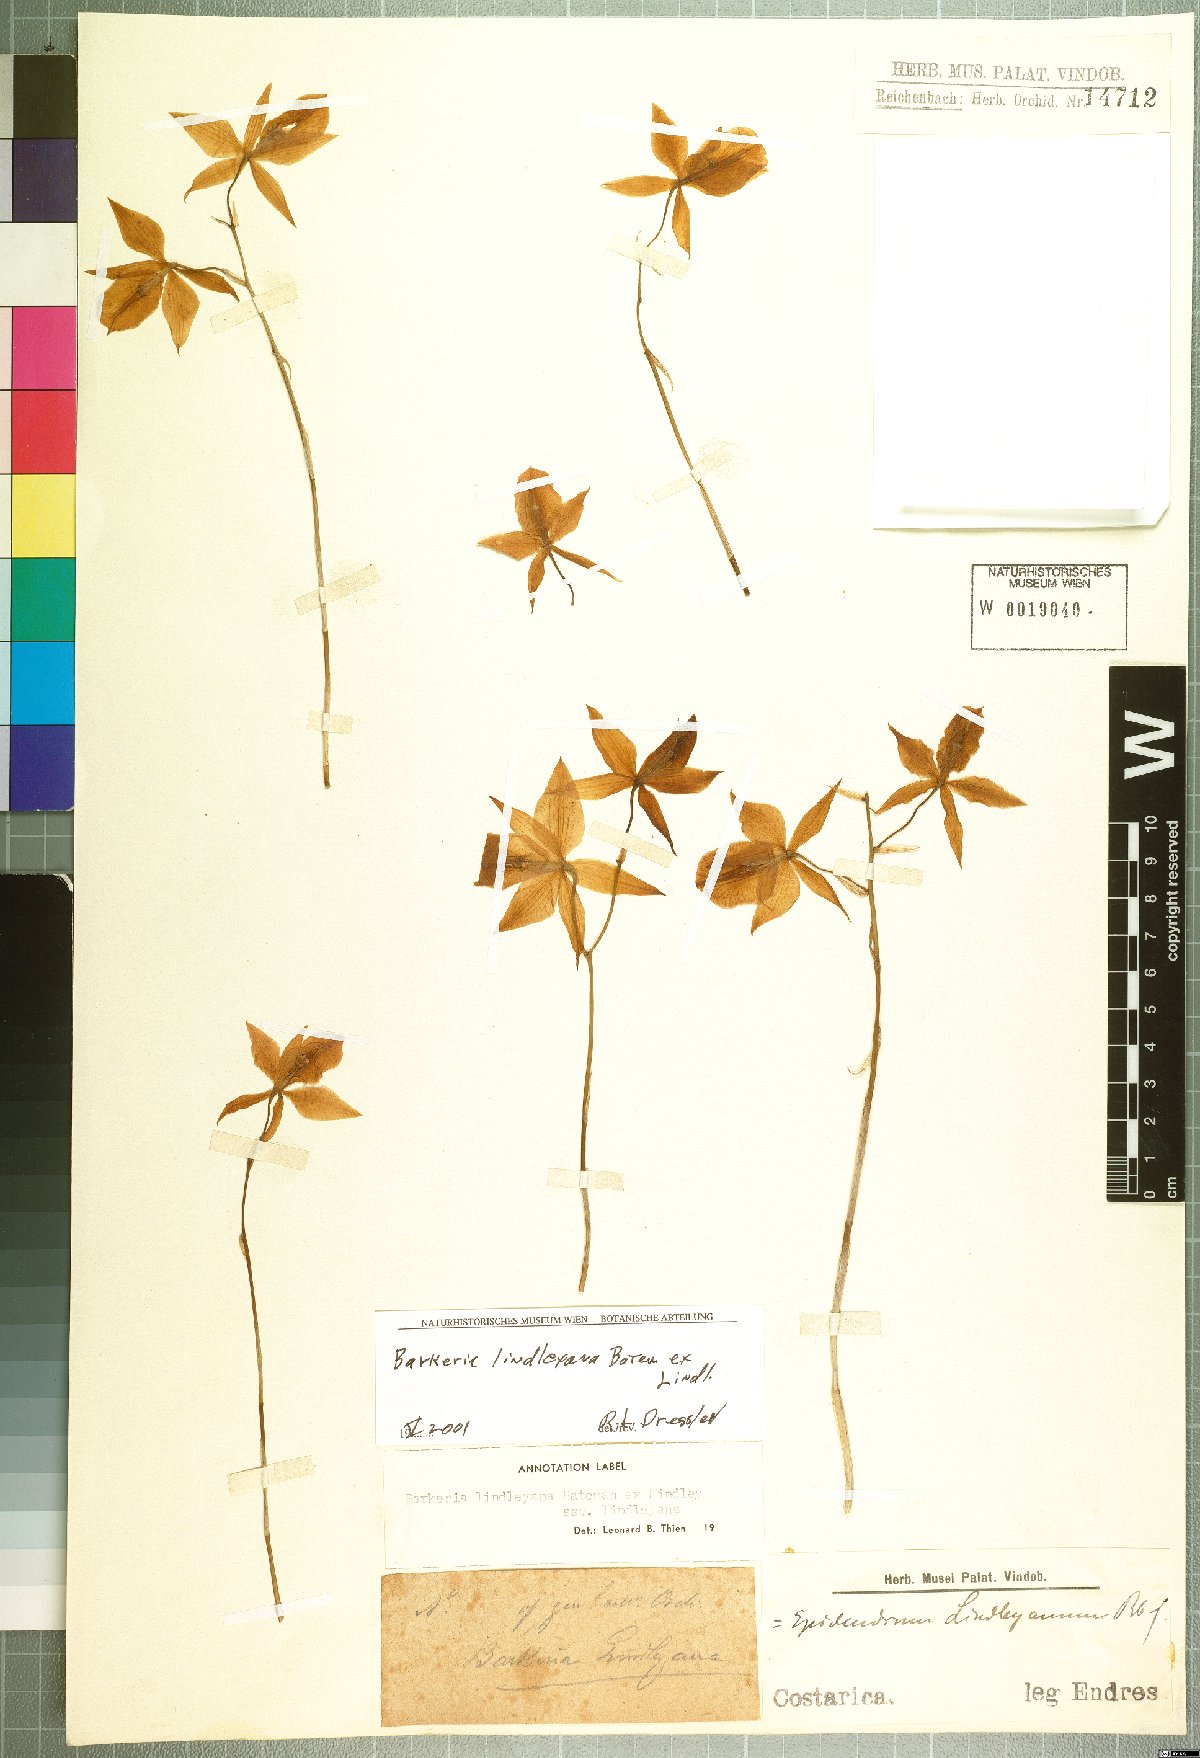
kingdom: Plantae
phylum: Tracheophyta
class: Liliopsida
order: Asparagales
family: Orchidaceae
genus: Barkeria
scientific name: Barkeria lindleyana
